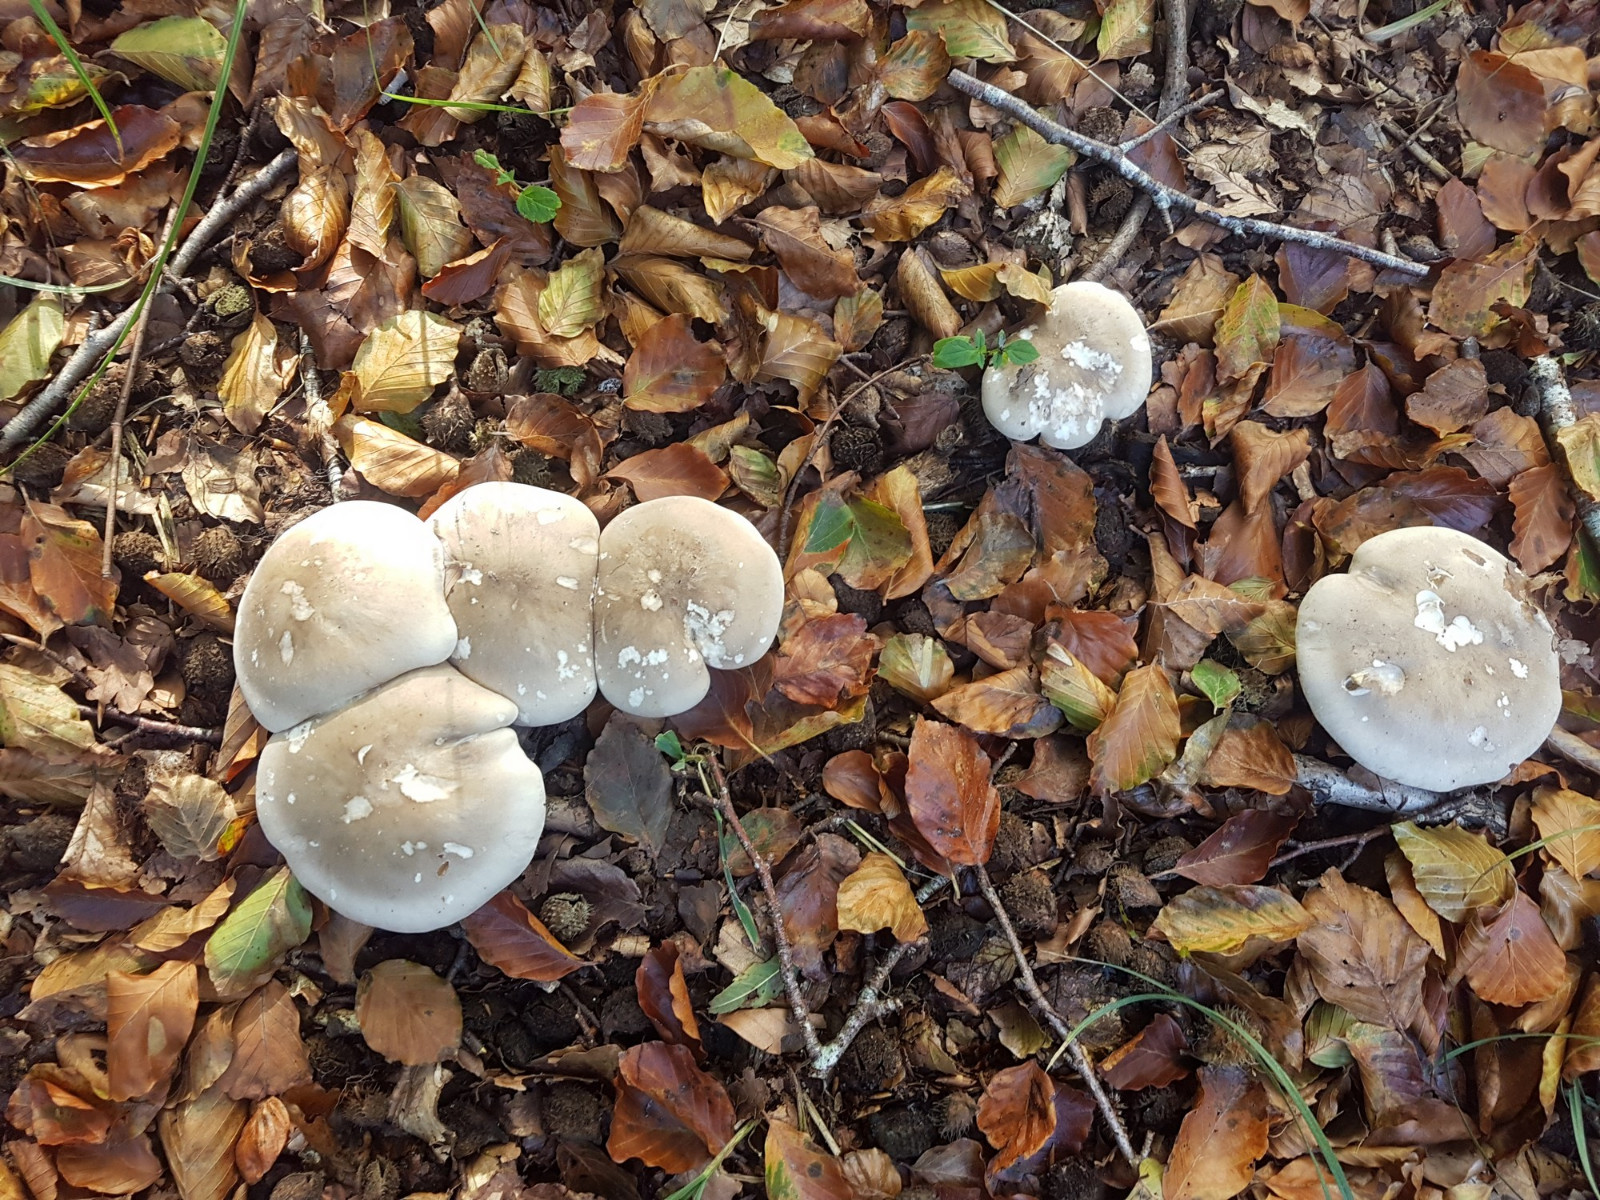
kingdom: Fungi
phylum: Basidiomycota
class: Agaricomycetes
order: Agaricales
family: Tricholomataceae
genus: Clitocybe
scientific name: Clitocybe nebularis
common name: tåge-tragthat
